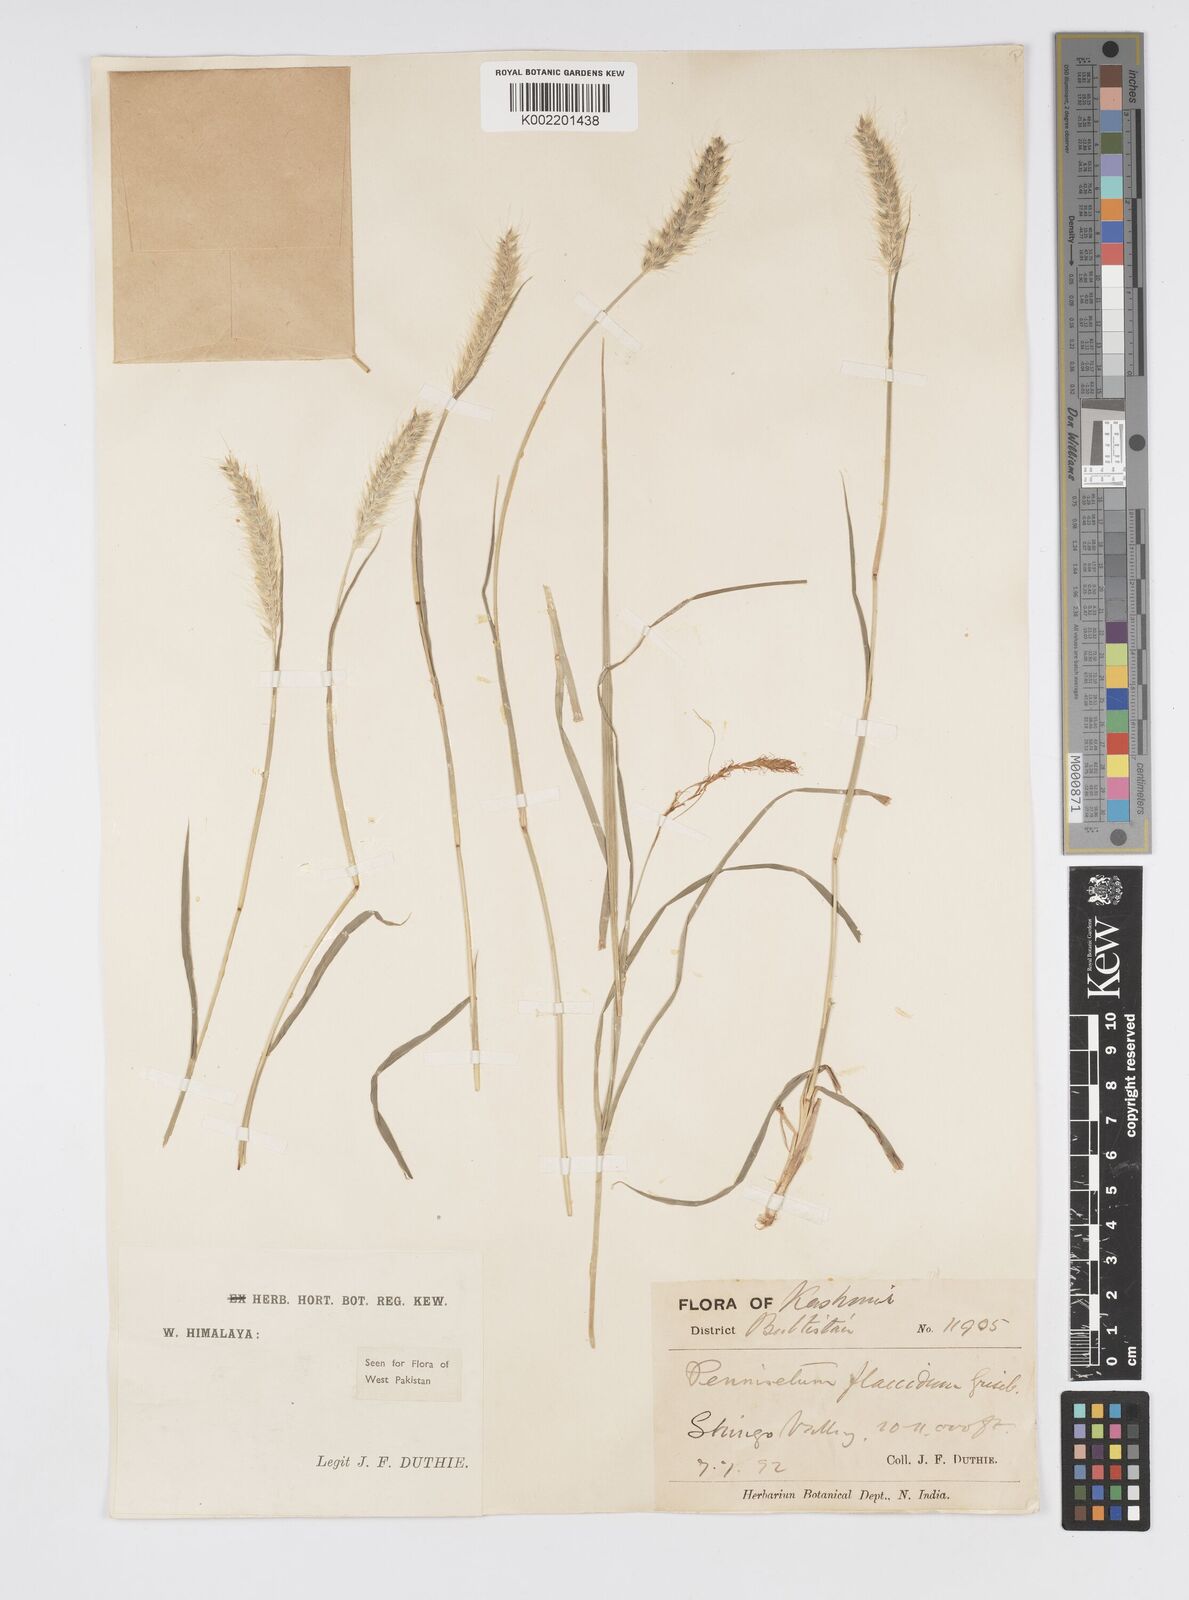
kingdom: Plantae
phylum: Tracheophyta
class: Liliopsida
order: Poales
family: Poaceae
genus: Cenchrus
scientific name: Cenchrus flaccidus
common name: Flaccid grass
